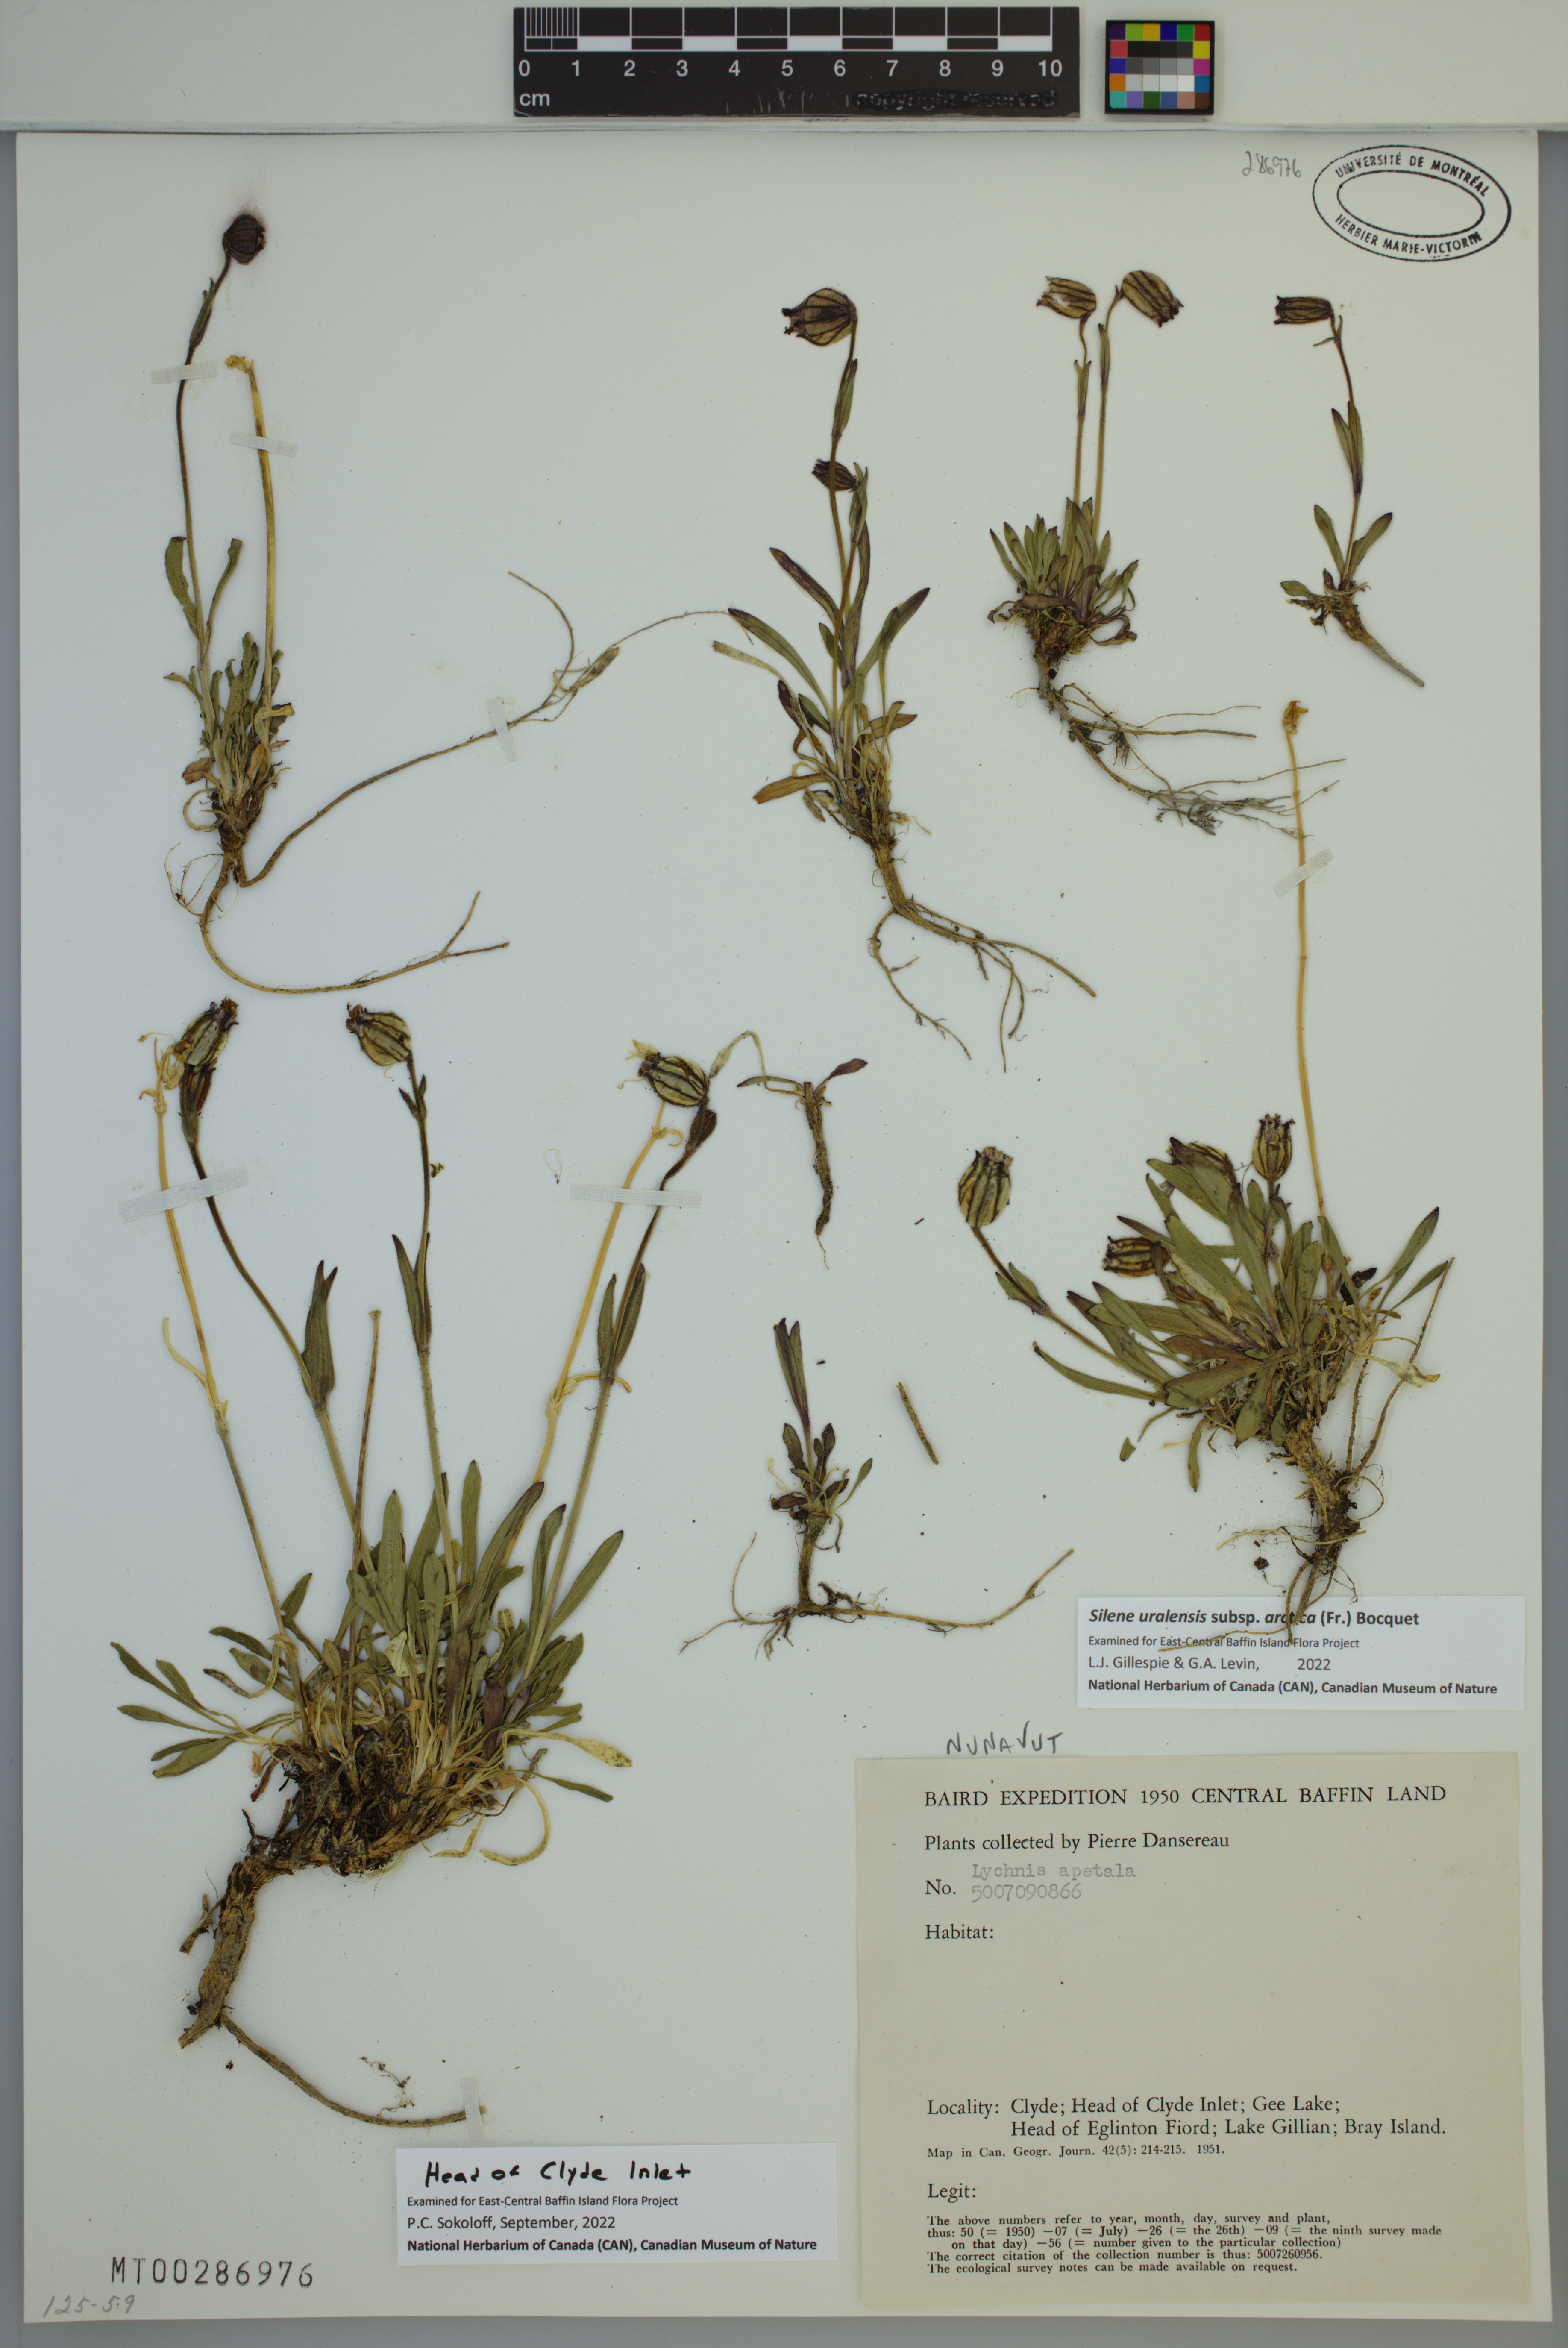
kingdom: Plantae
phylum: Tracheophyta
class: Magnoliopsida
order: Caryophyllales
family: Caryophyllaceae
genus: Silene
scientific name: Silene uralensis
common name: Nodding campion
